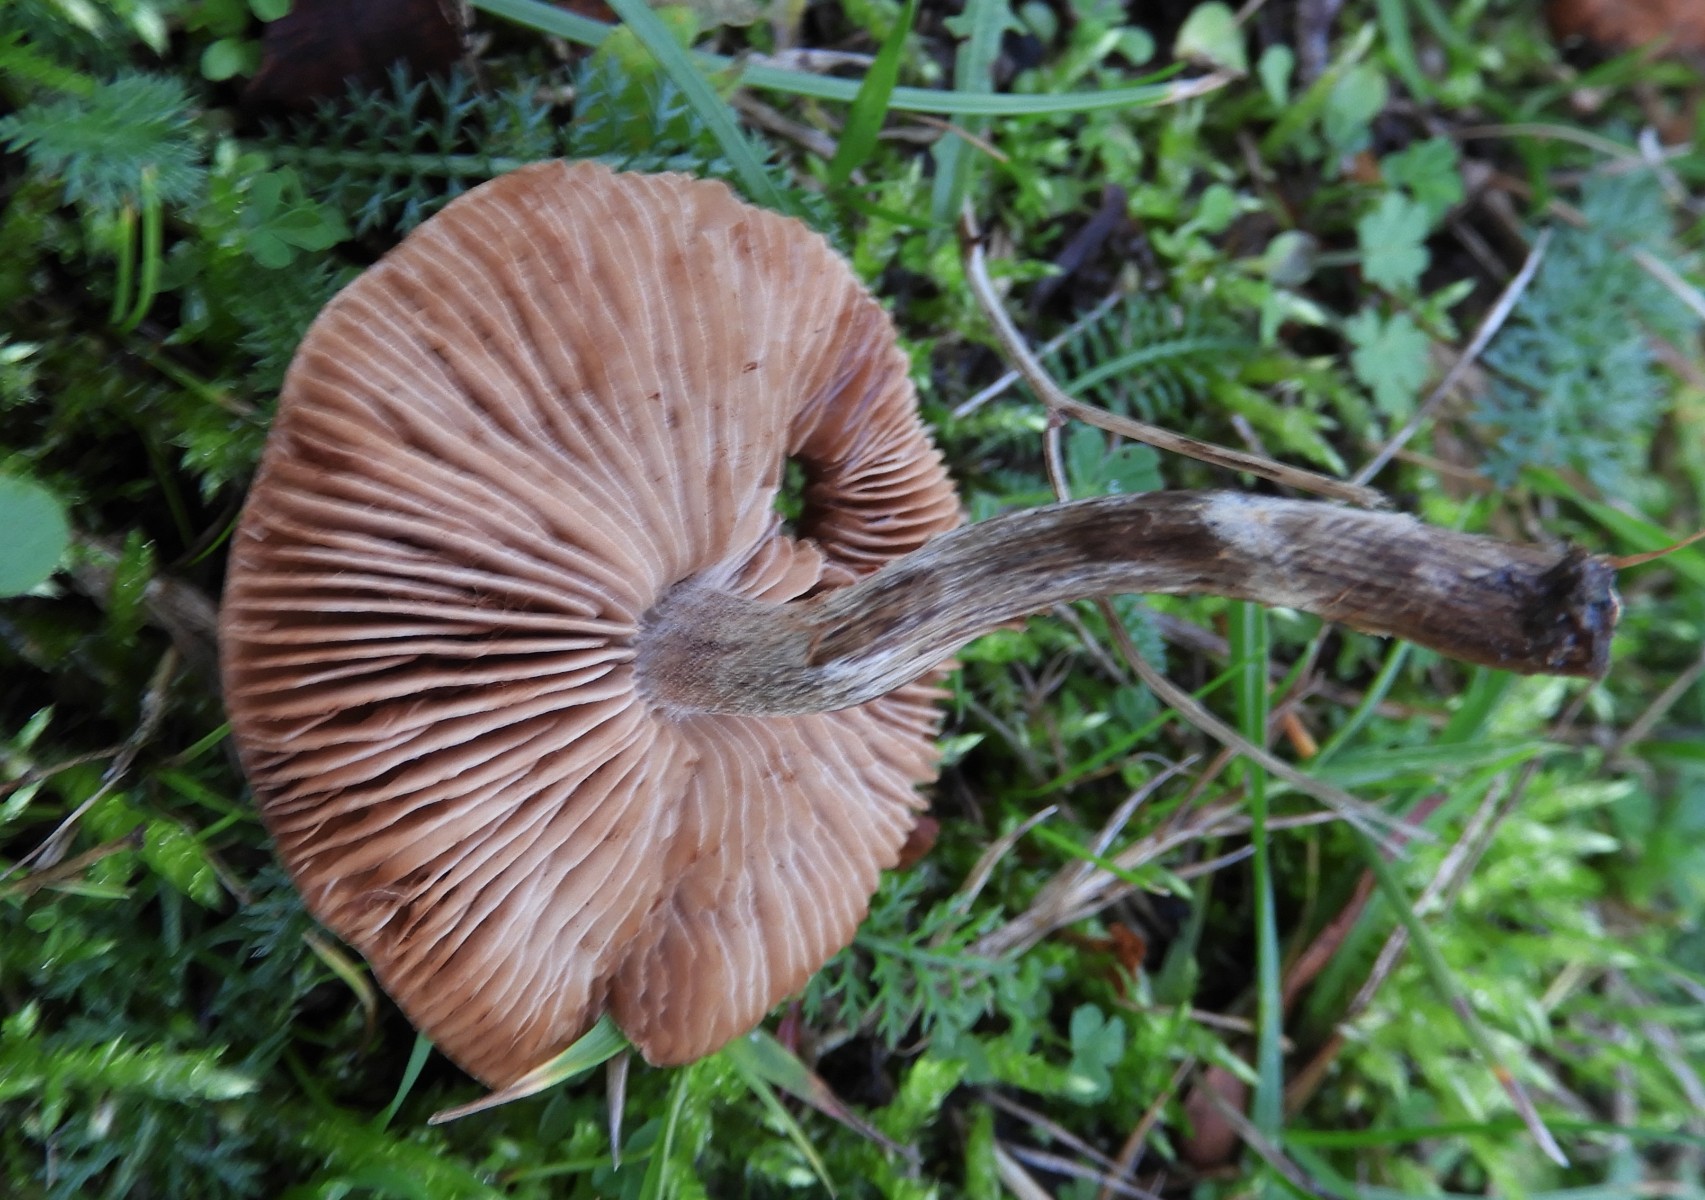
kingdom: Fungi
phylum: Basidiomycota
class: Agaricomycetes
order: Agaricales
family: Hymenogastraceae
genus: Hebeloma
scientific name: Hebeloma mesophaeum
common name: lerbrun tåreblad
